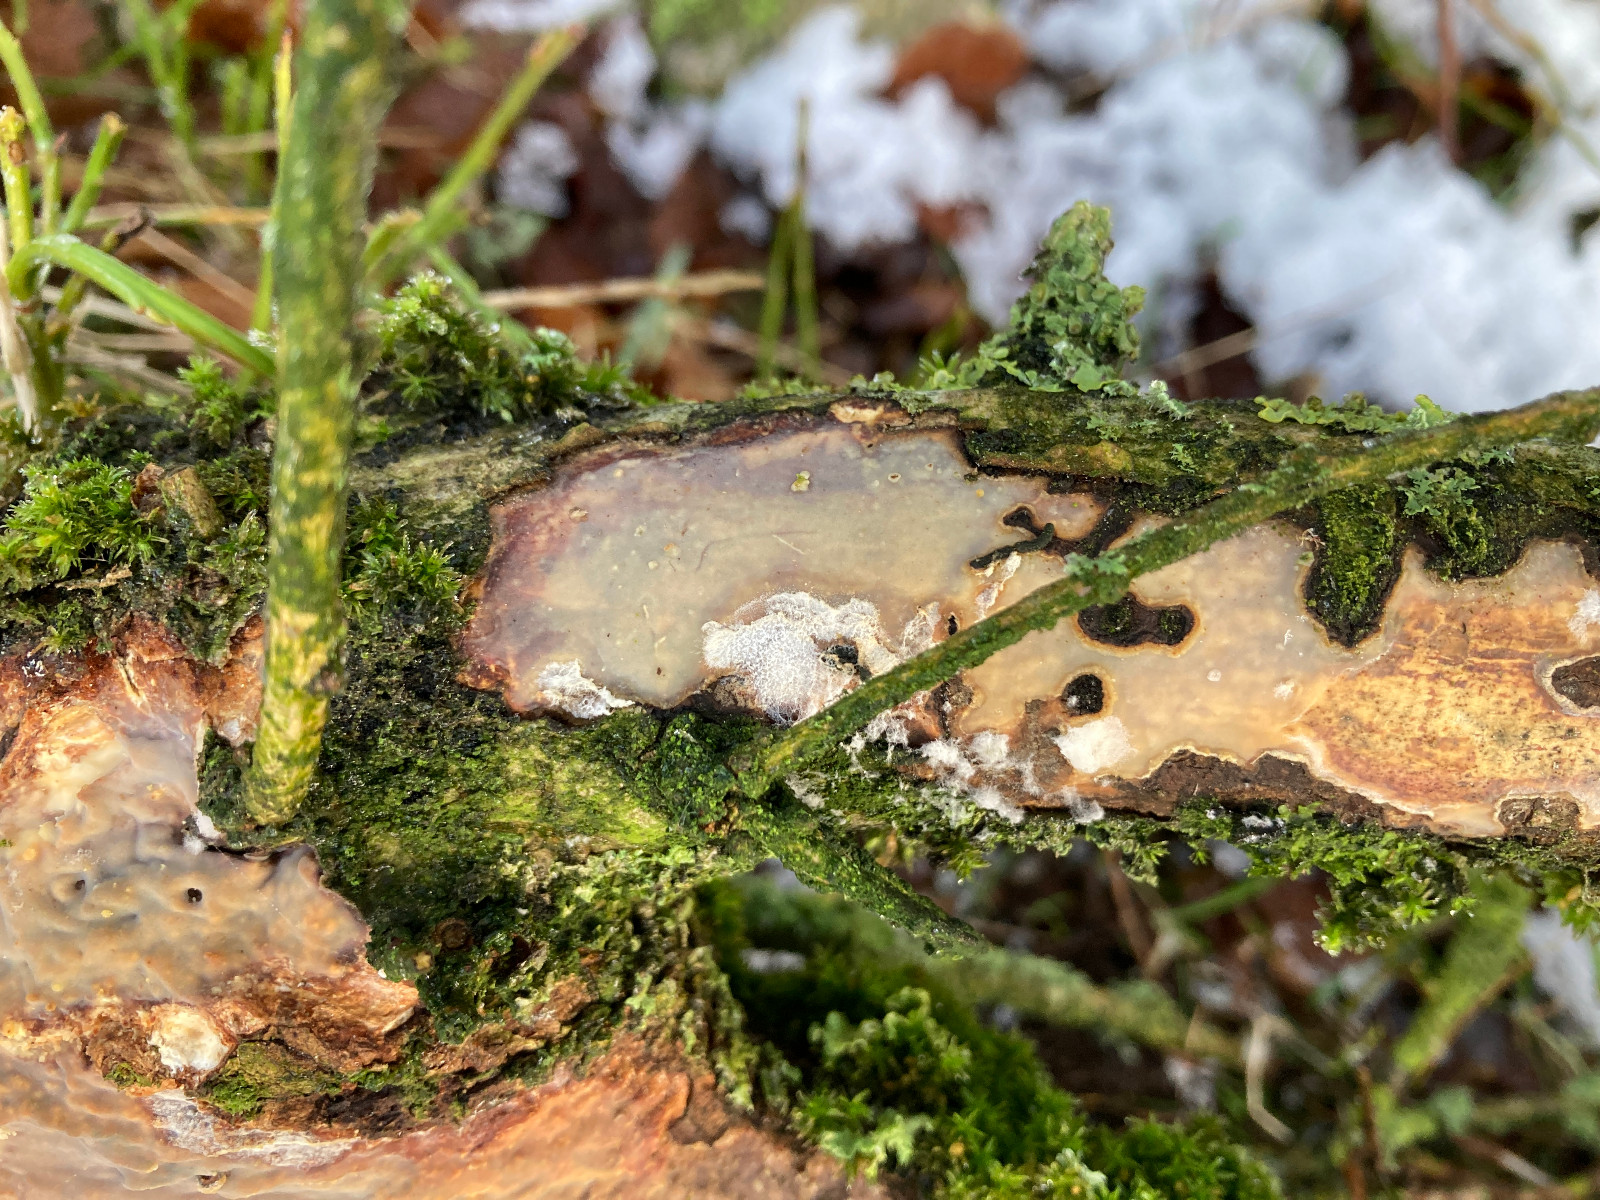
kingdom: Fungi
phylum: Basidiomycota
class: Agaricomycetes
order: Corticiales
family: Vuilleminiaceae
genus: Vuilleminia
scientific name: Vuilleminia comedens
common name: almindelig barksprænger
